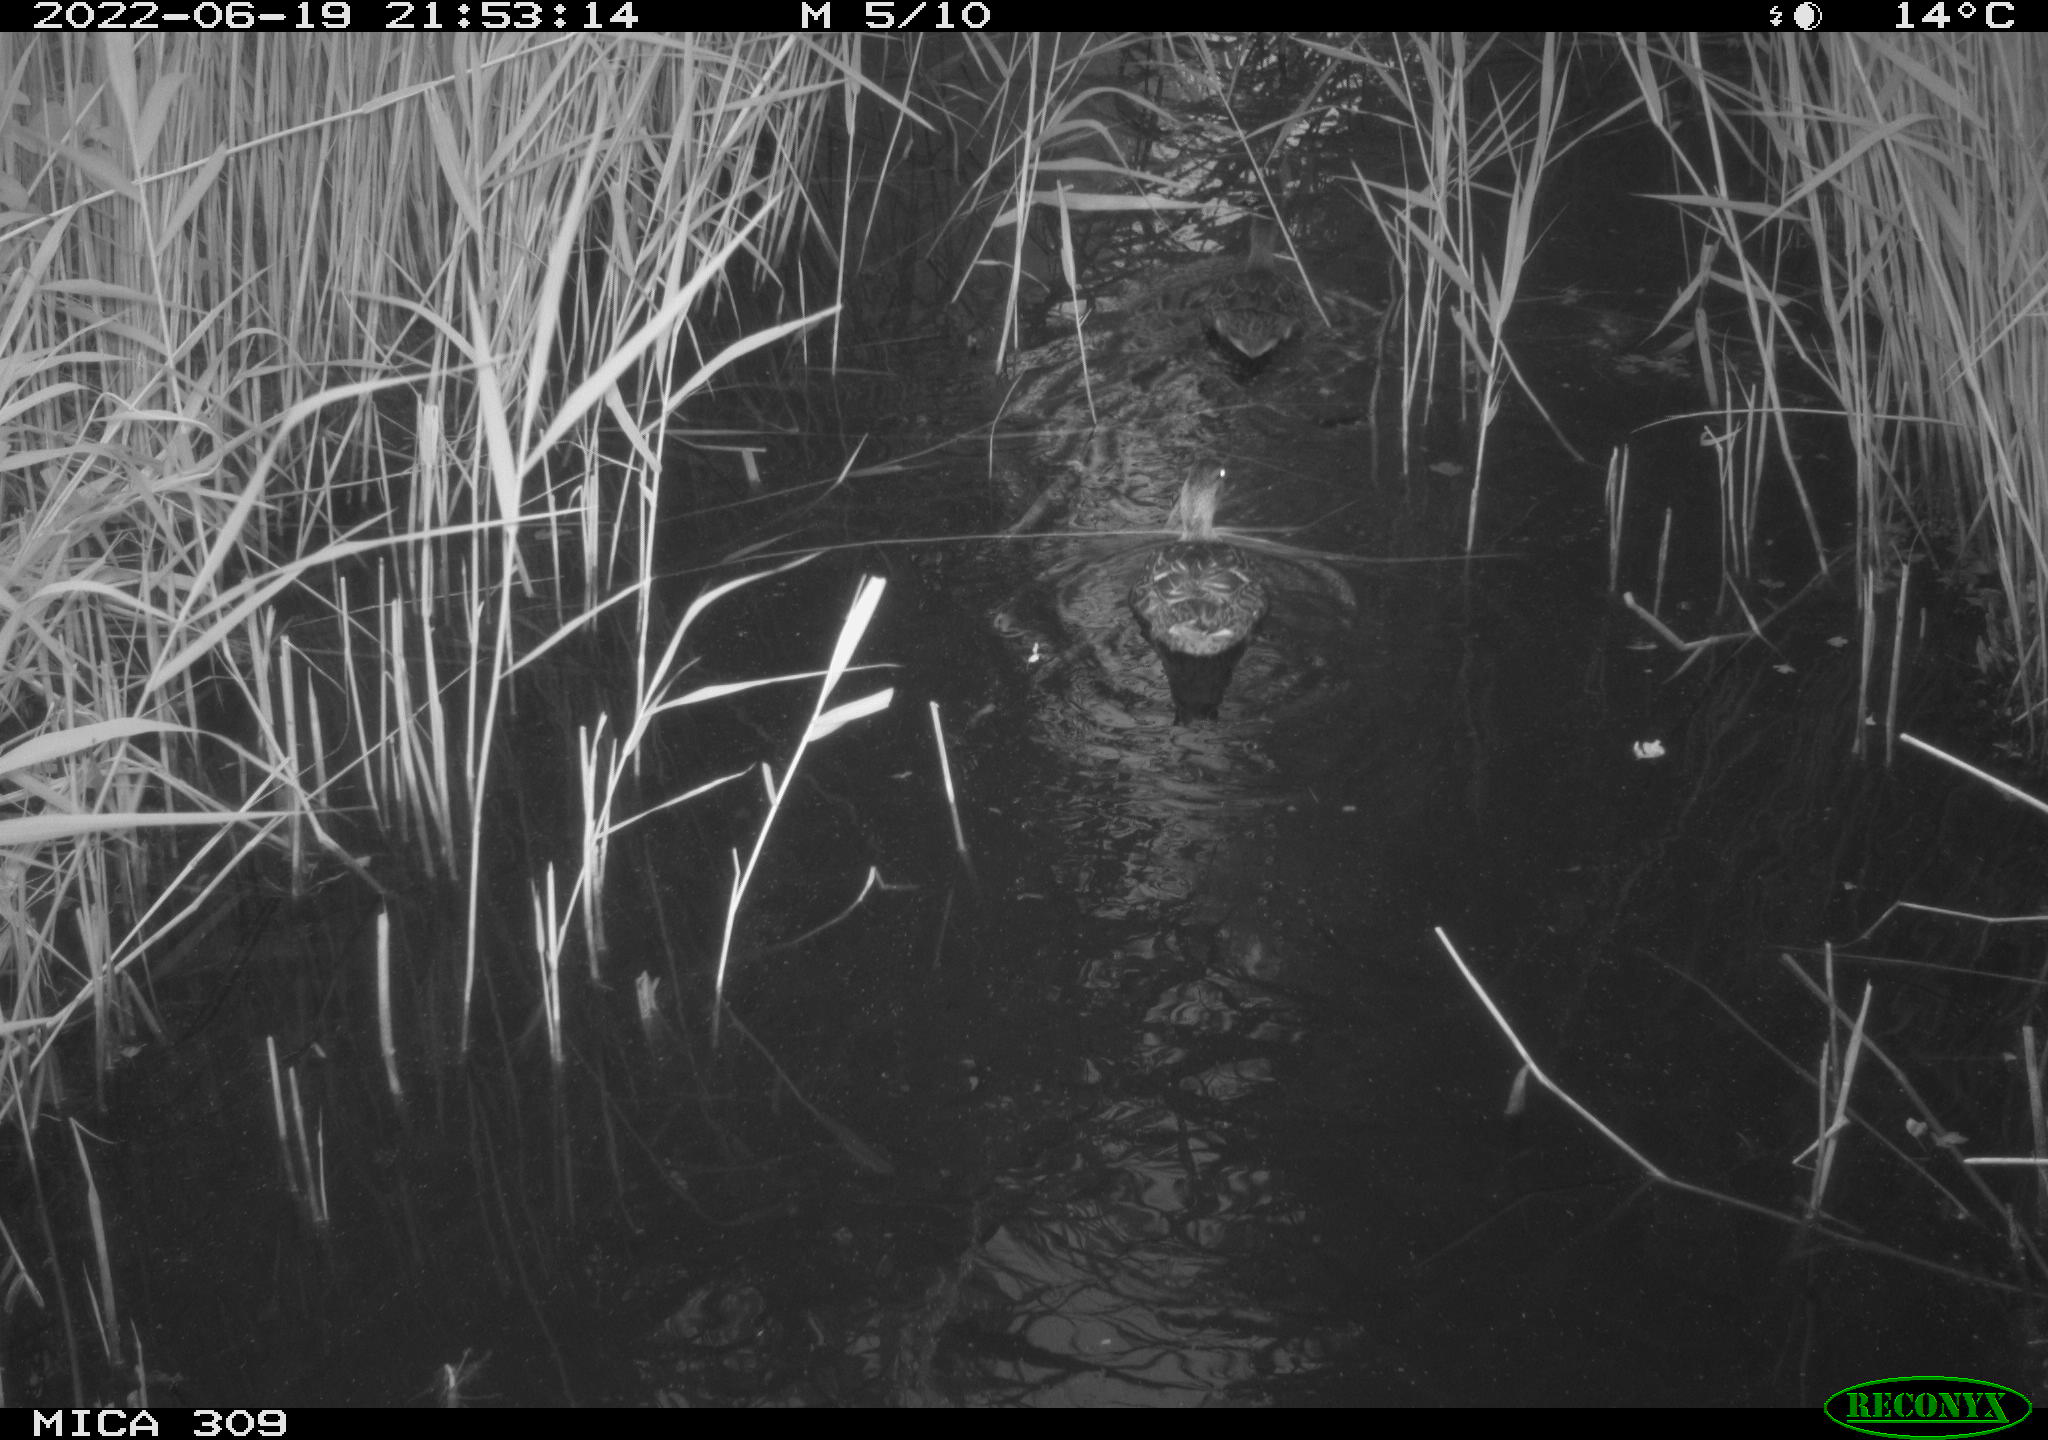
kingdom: Animalia
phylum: Chordata
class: Aves
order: Anseriformes
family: Anatidae
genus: Anas
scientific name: Anas platyrhynchos
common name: Mallard
